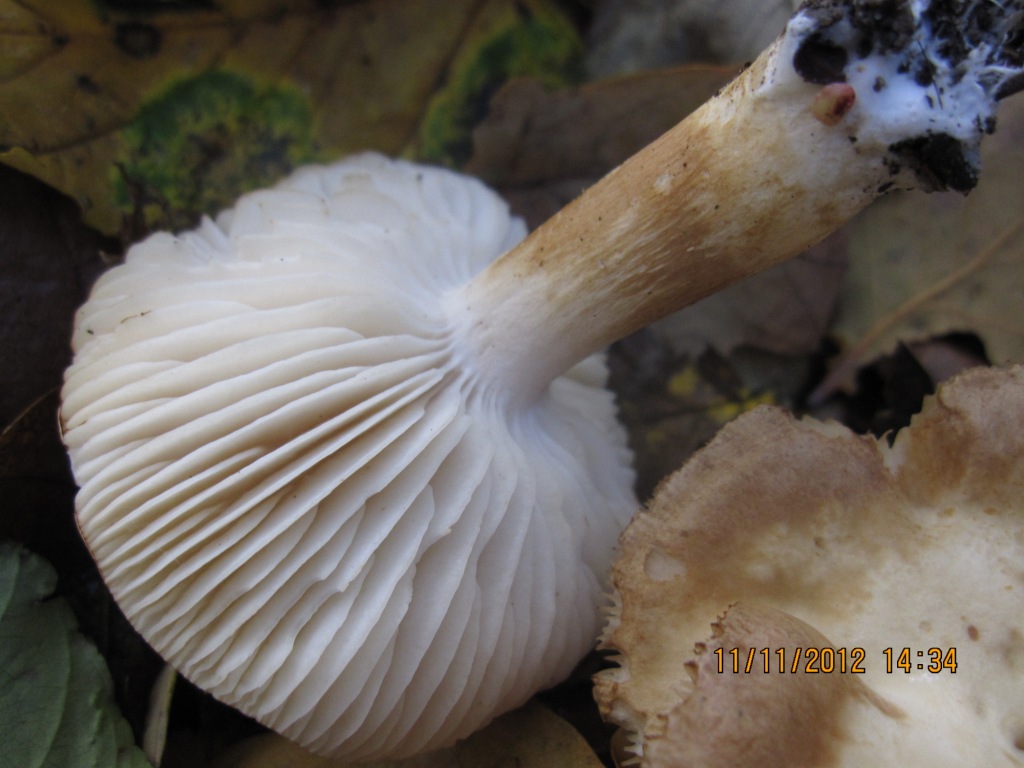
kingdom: Fungi
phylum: Basidiomycota
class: Agaricomycetes
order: Agaricales
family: Tricholomataceae
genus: Tricholoma
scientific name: Tricholoma album
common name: honning-ridderhat
